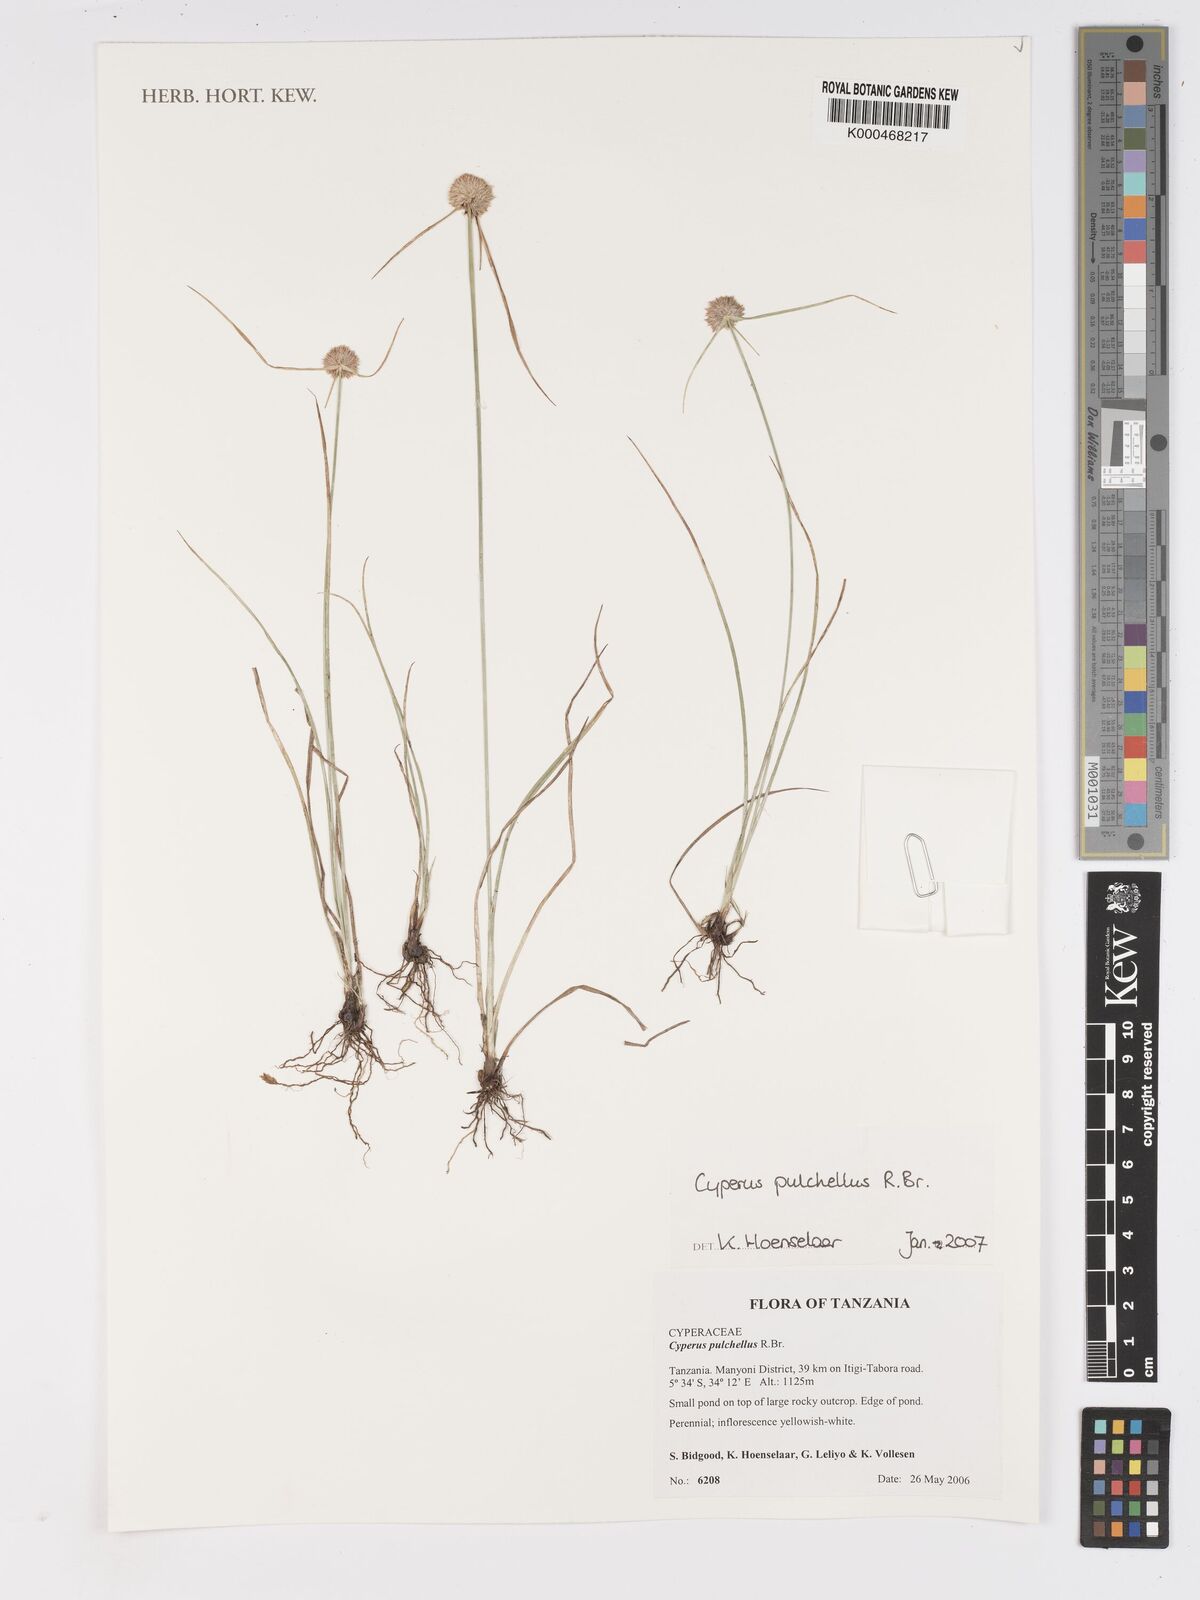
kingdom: Plantae
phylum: Tracheophyta
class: Liliopsida
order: Poales
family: Cyperaceae
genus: Cyperus
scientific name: Cyperus pulchellus
